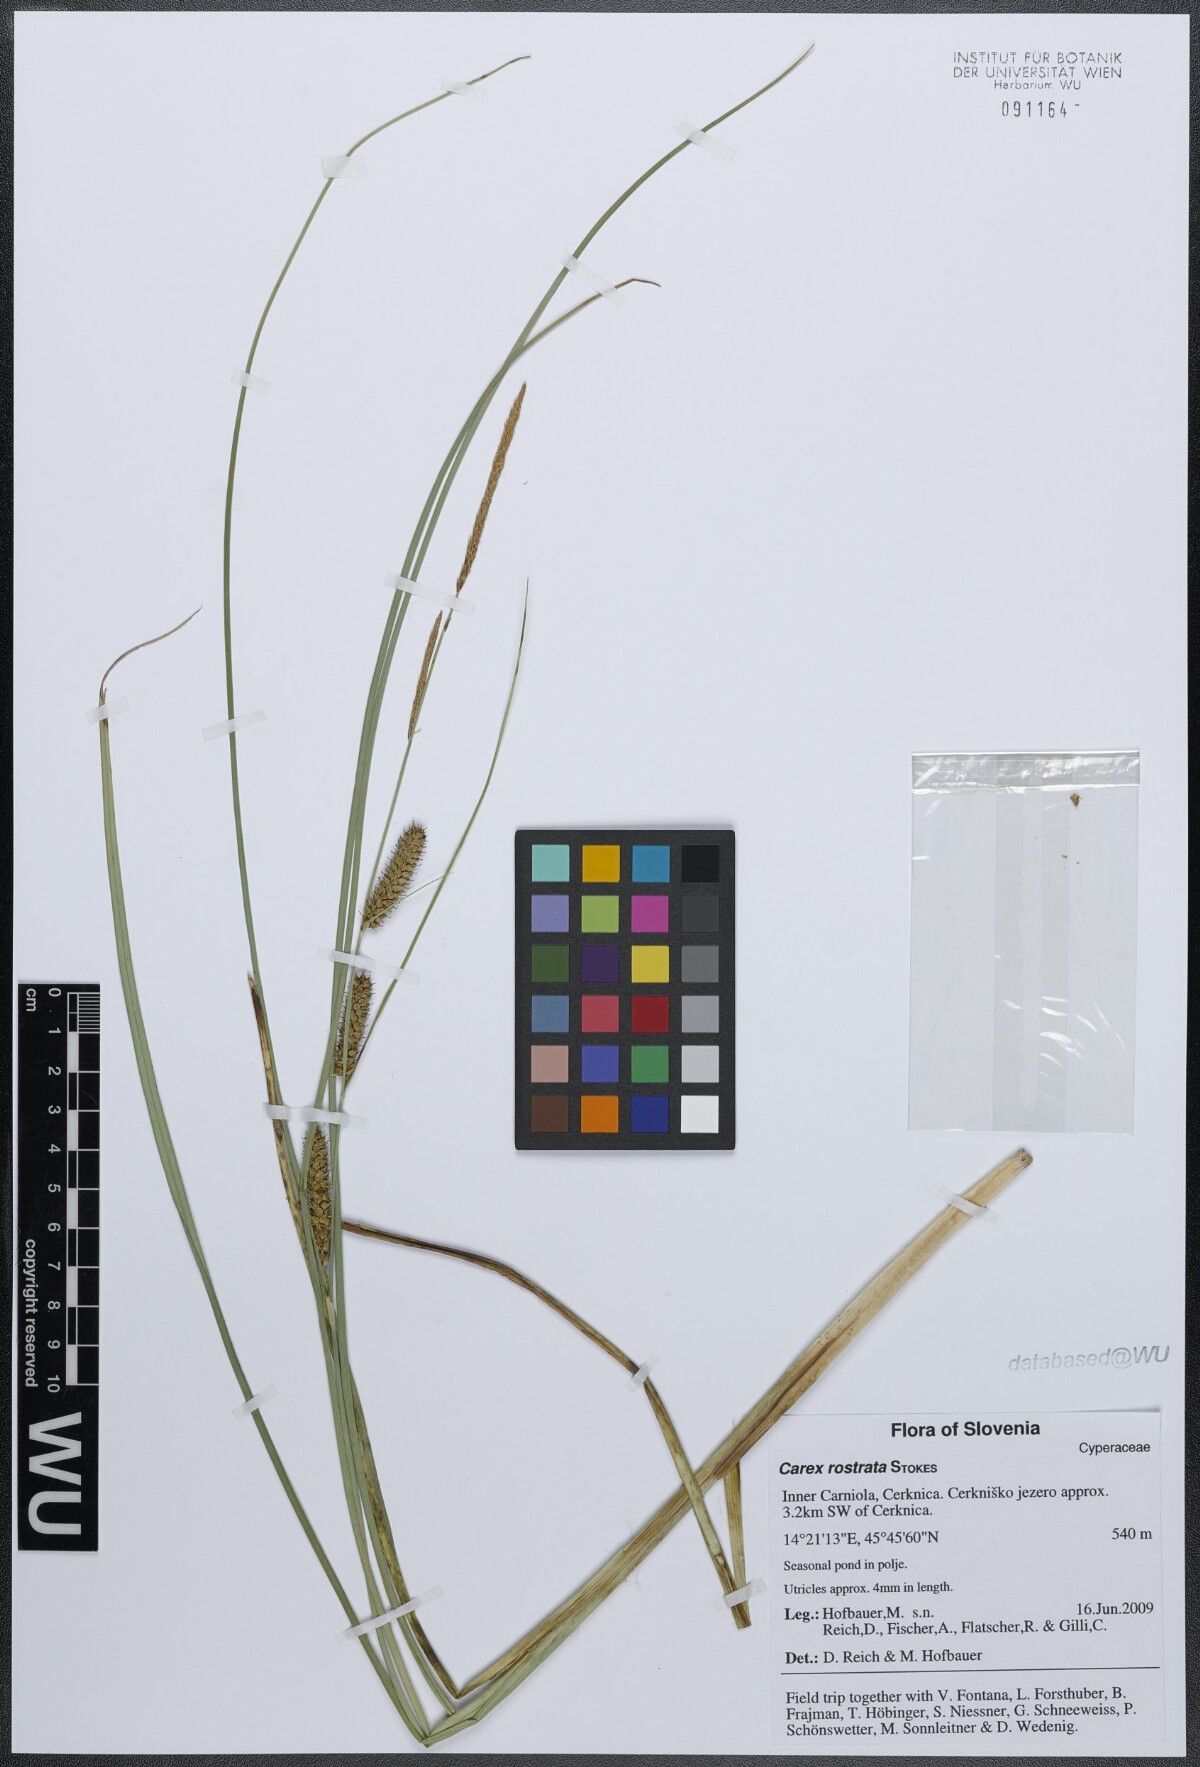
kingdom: Plantae
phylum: Tracheophyta
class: Liliopsida
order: Poales
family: Cyperaceae
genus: Carex
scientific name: Carex rostrata
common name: Bottle sedge
